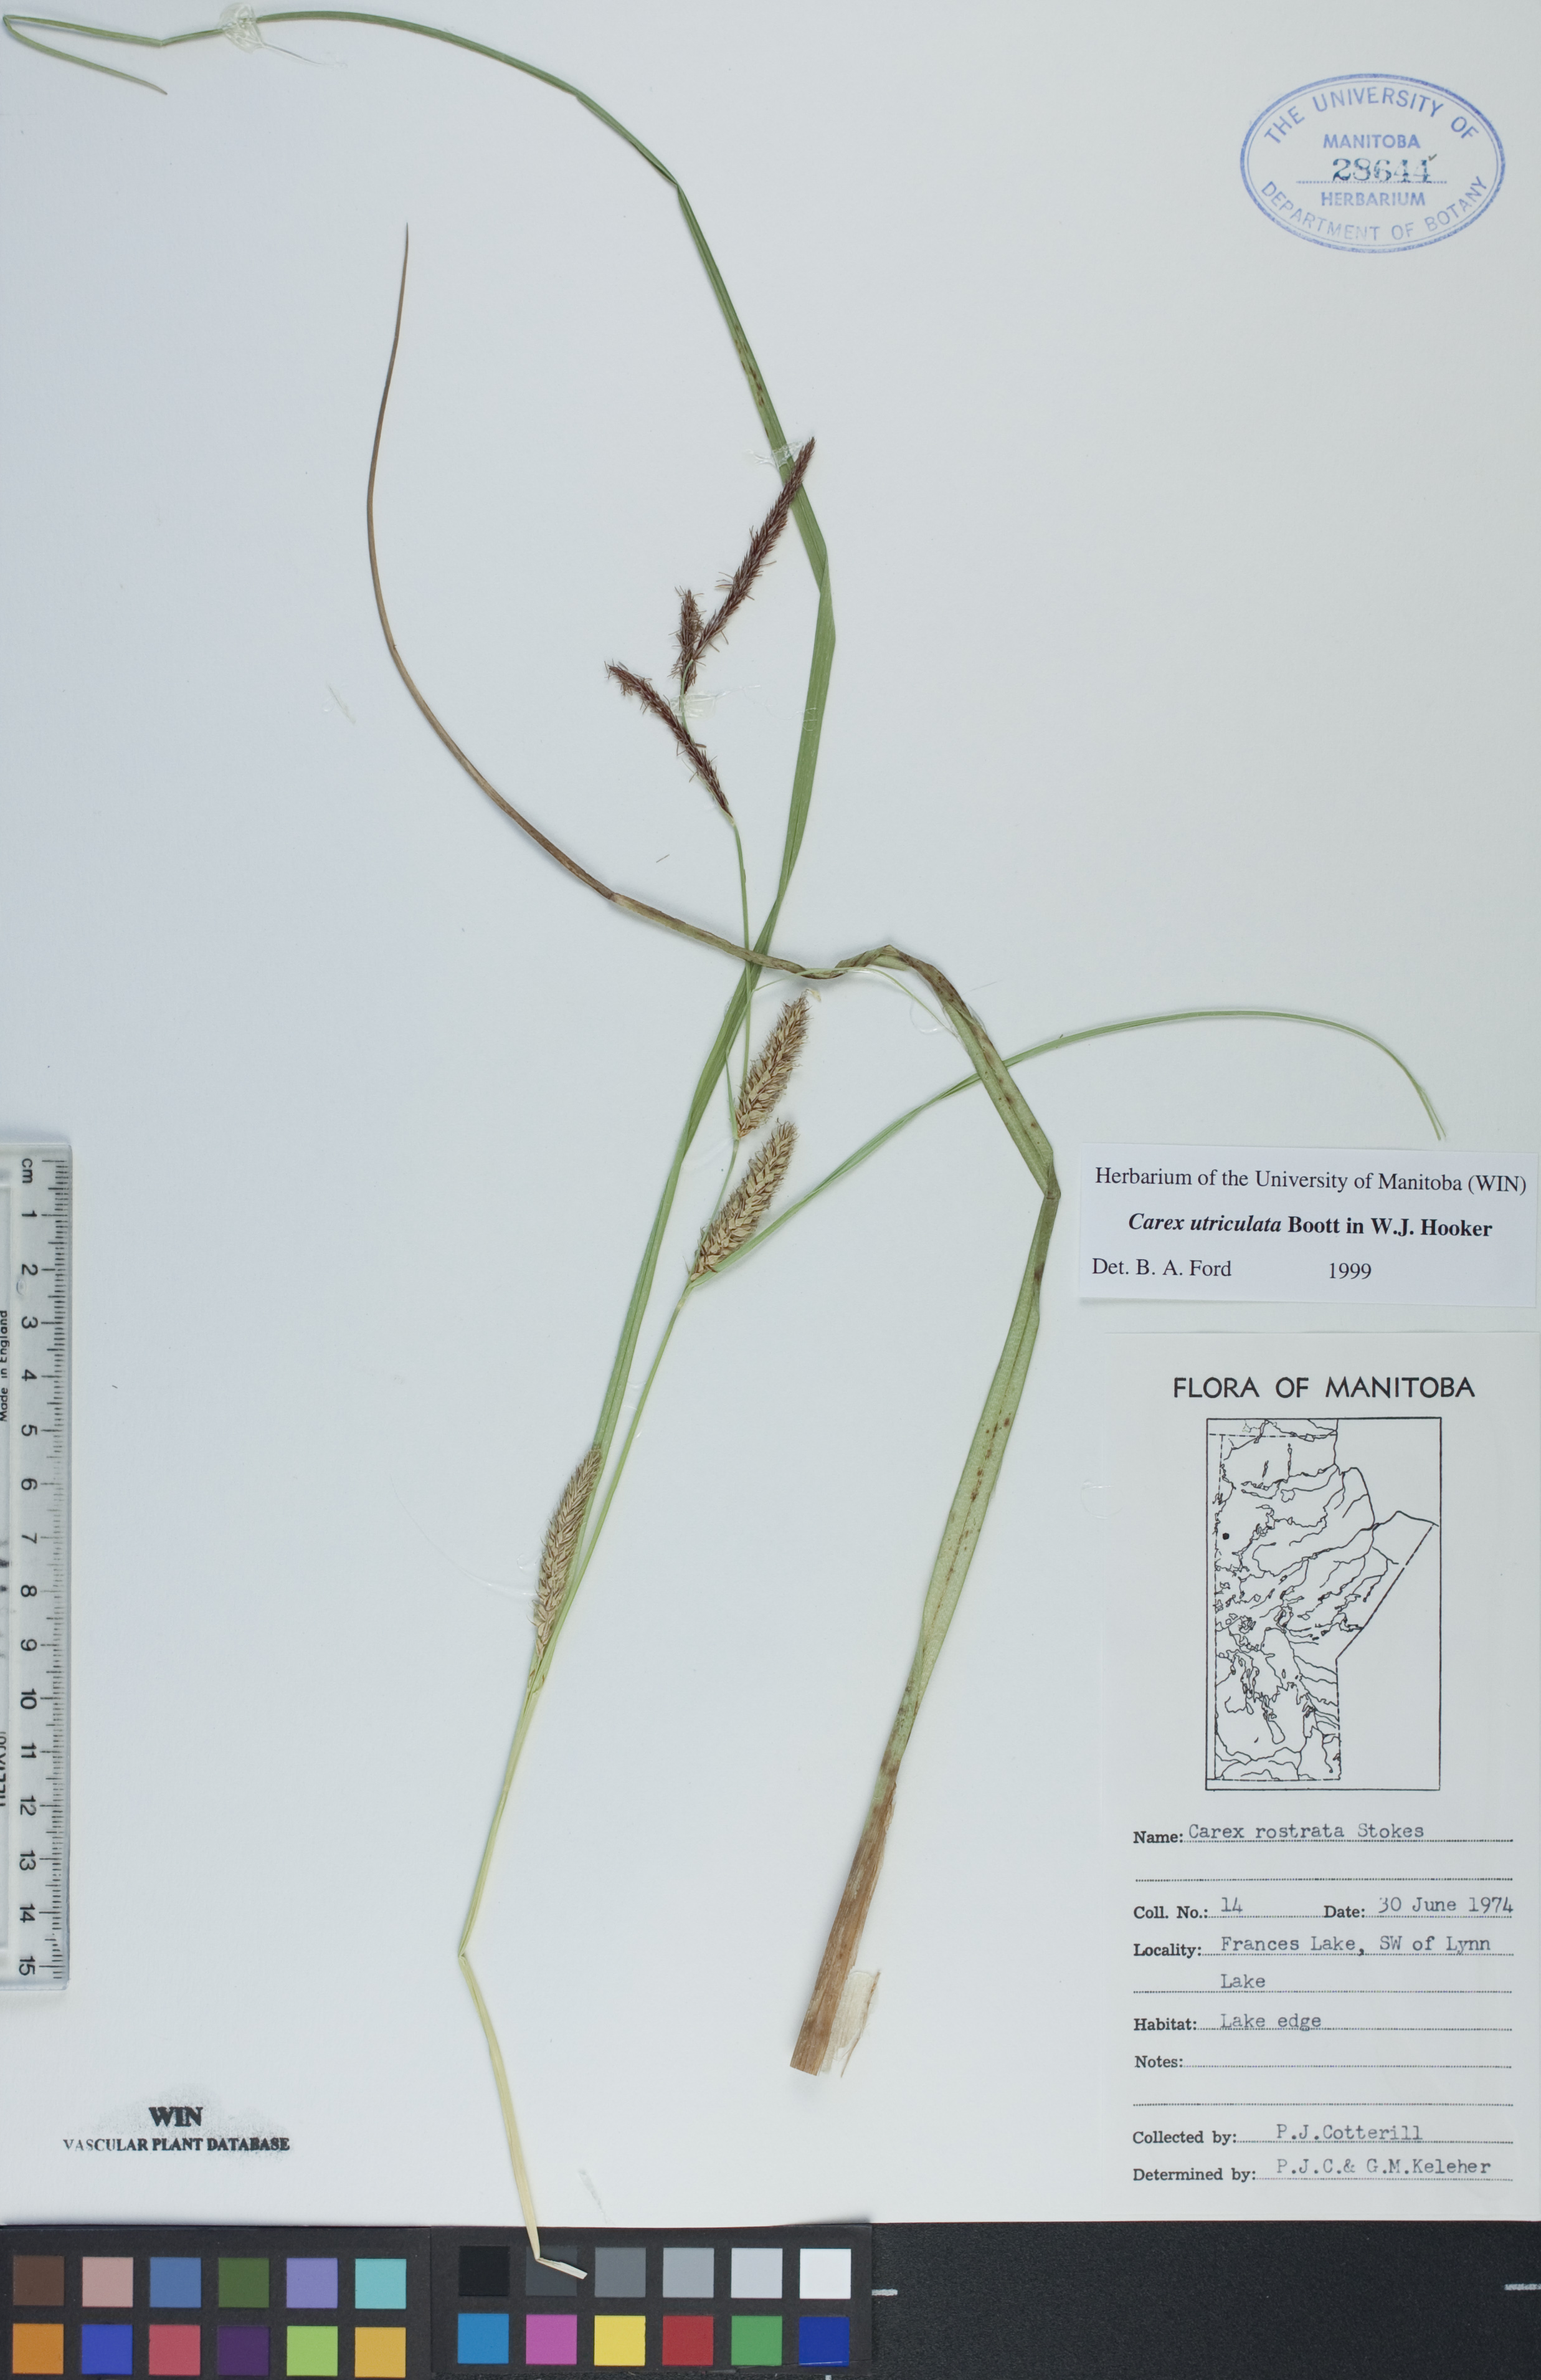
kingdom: Plantae
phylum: Tracheophyta
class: Liliopsida
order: Poales
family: Cyperaceae
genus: Carex
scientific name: Carex utriculata
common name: Beaked sedge
